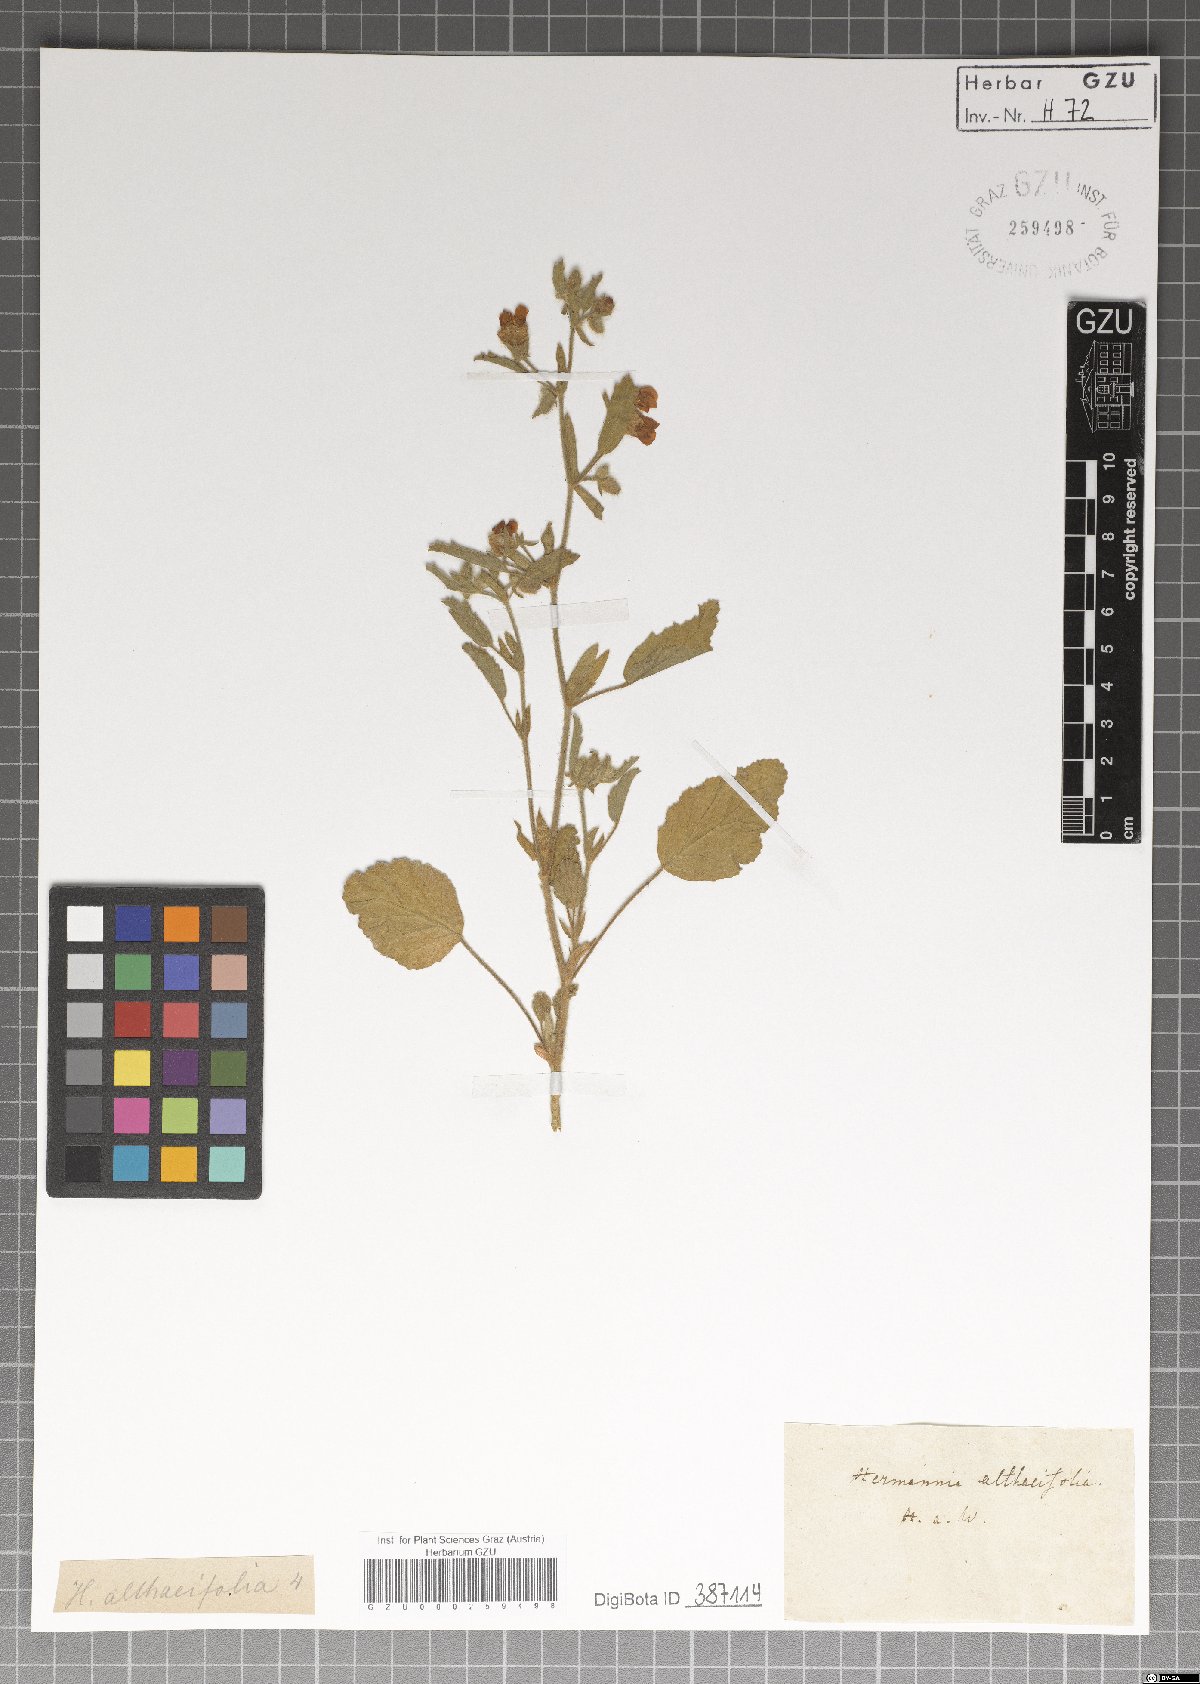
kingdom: Plantae
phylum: Tracheophyta
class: Magnoliopsida
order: Malvales
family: Malvaceae
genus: Hermannia
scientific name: Hermannia althaeifolia
